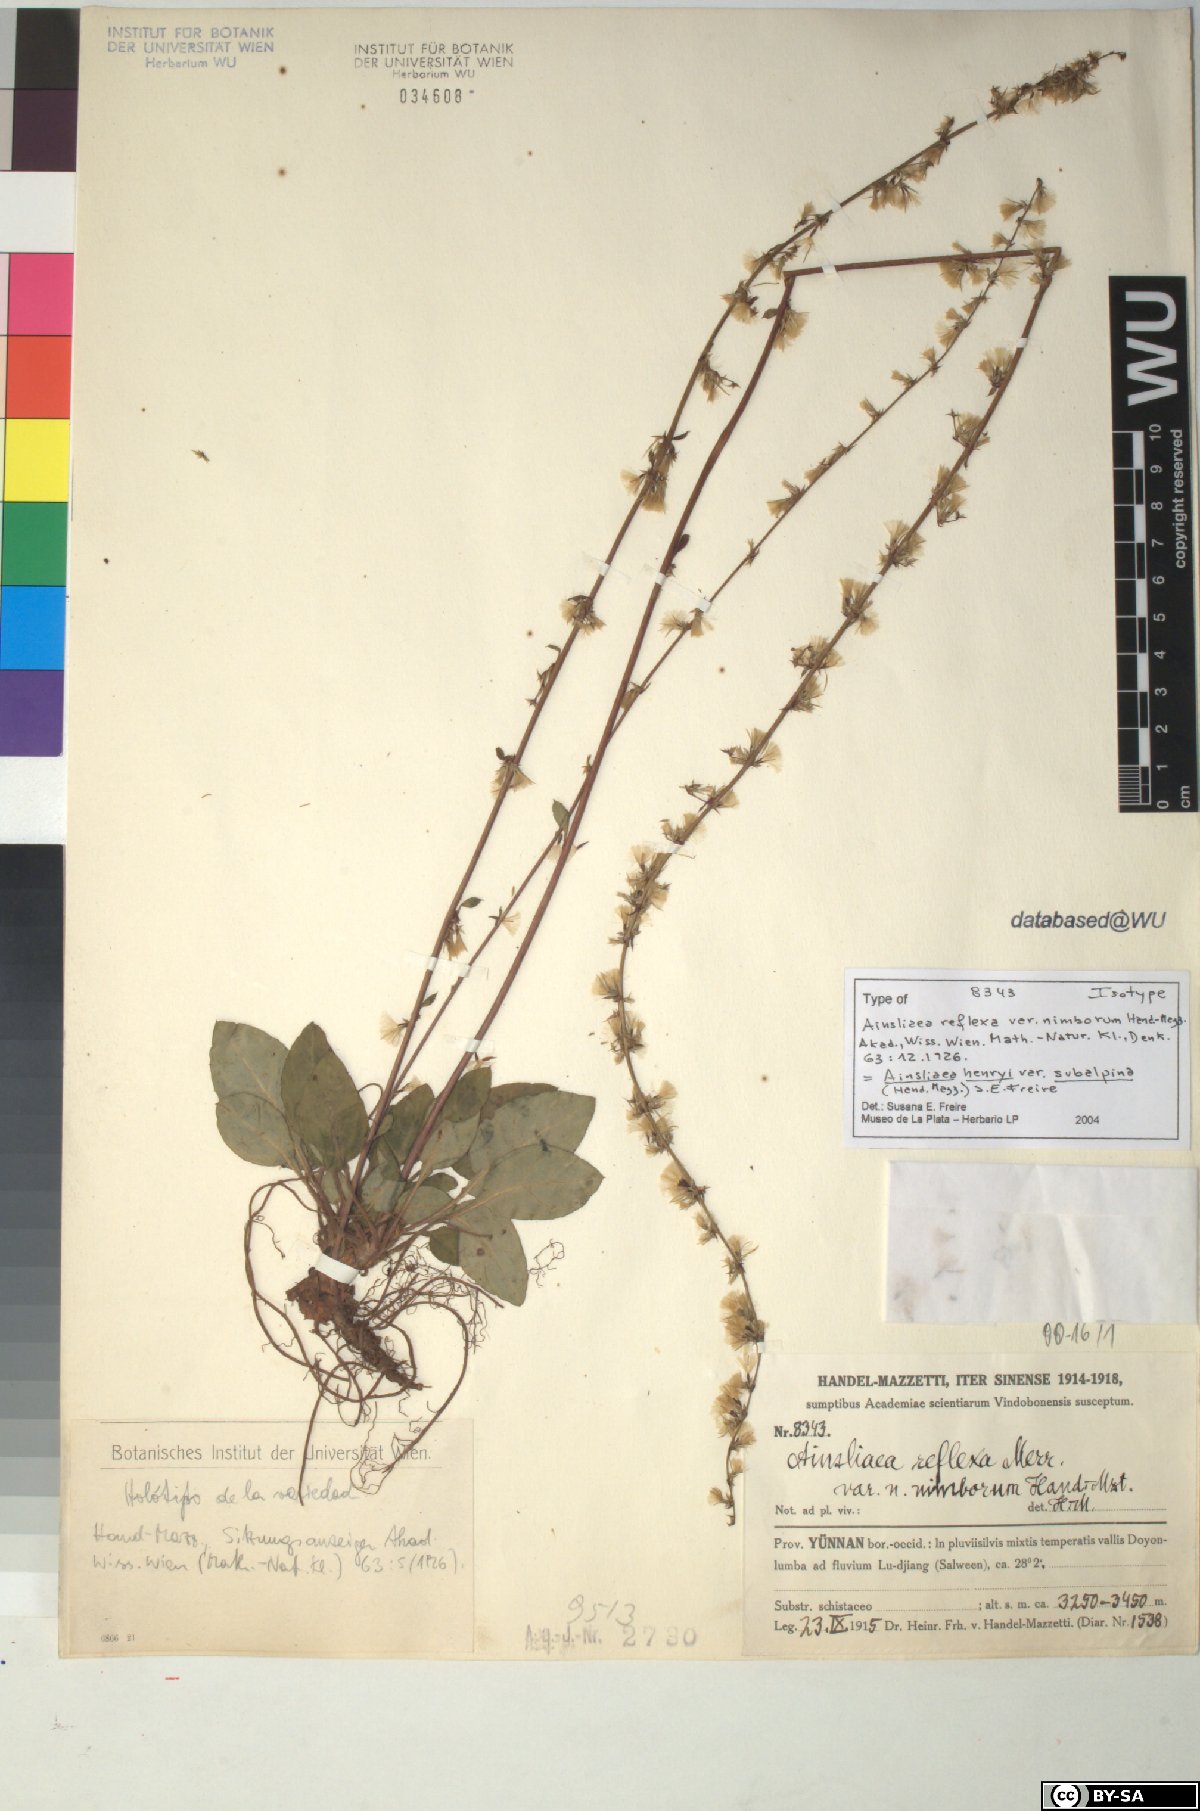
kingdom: Plantae
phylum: Tracheophyta
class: Magnoliopsida
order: Asterales
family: Asteraceae
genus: Ainsliaea
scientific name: Ainsliaea reflexa
